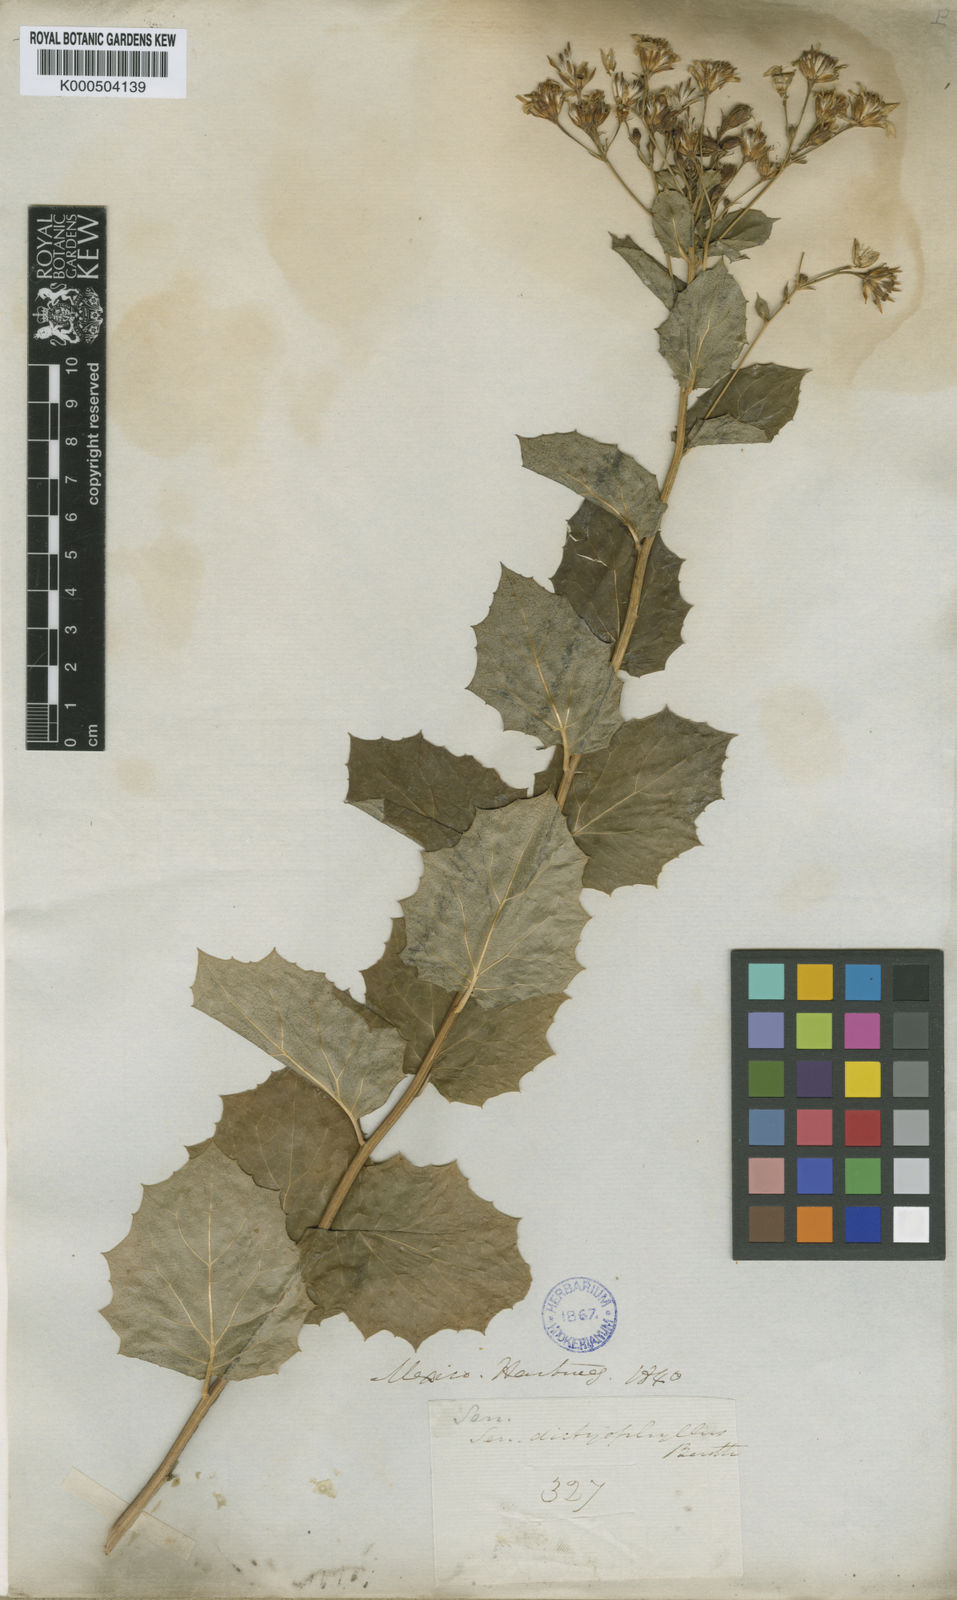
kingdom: Plantae
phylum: Tracheophyta
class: Magnoliopsida
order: Asterales
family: Asteraceae
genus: Roldana
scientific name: Roldana reticulata
